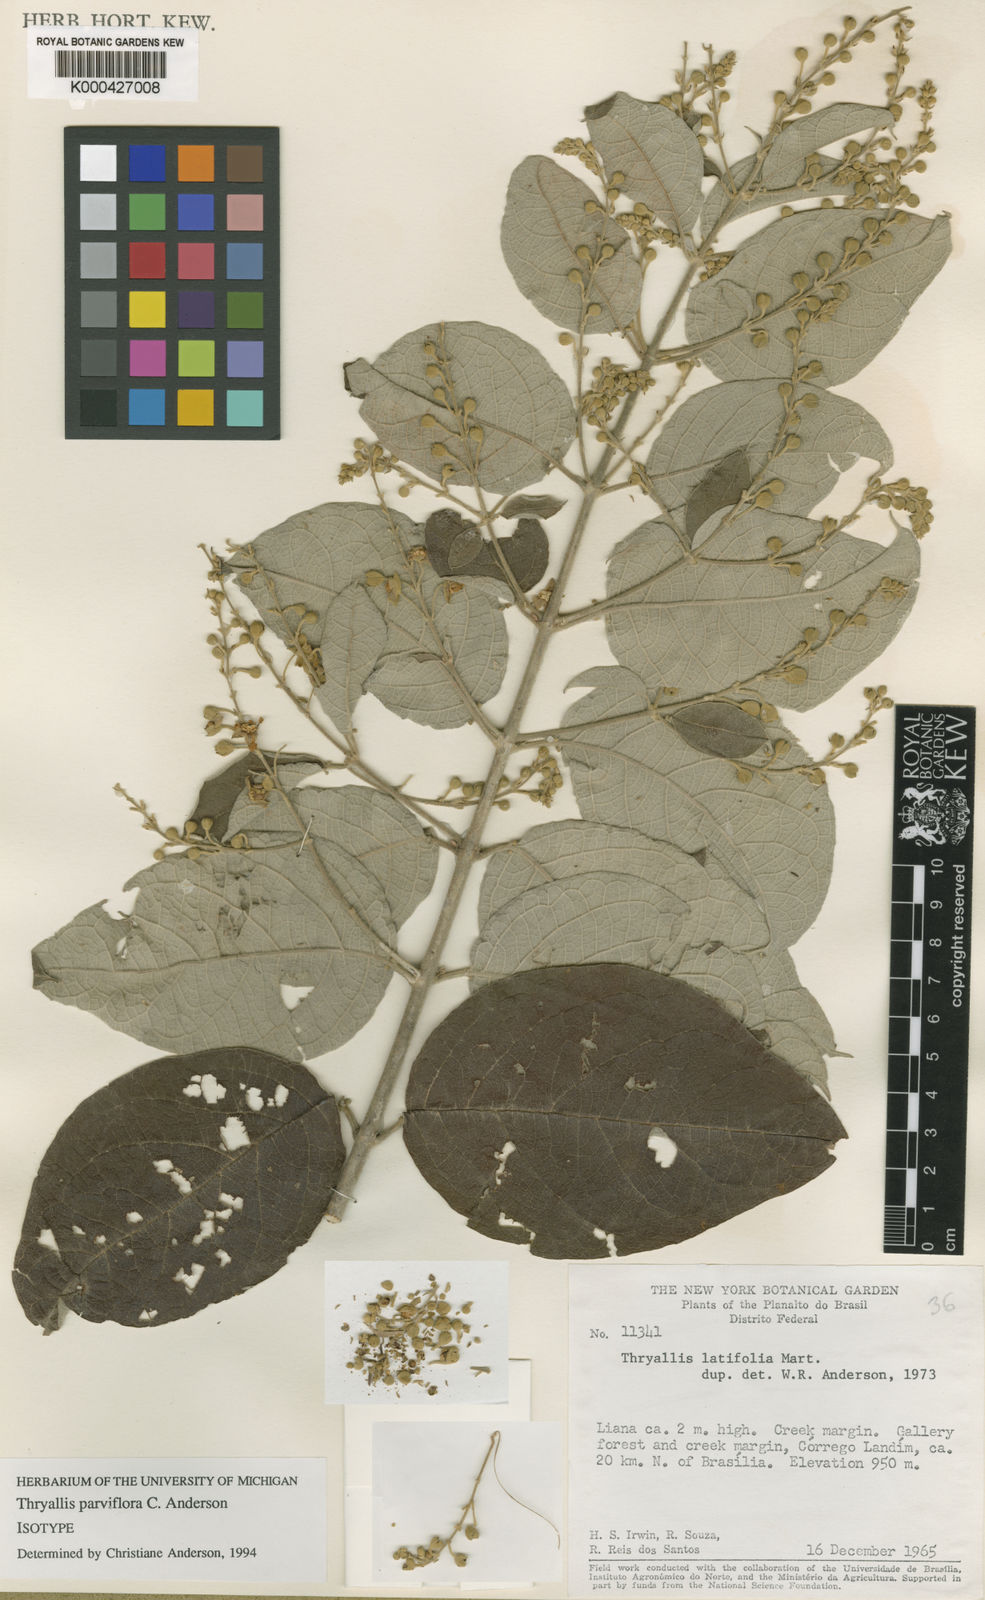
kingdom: Plantae
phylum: Tracheophyta
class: Magnoliopsida
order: Malpighiales
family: Malpighiaceae
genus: Thryallis
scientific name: Thryallis parviflora
